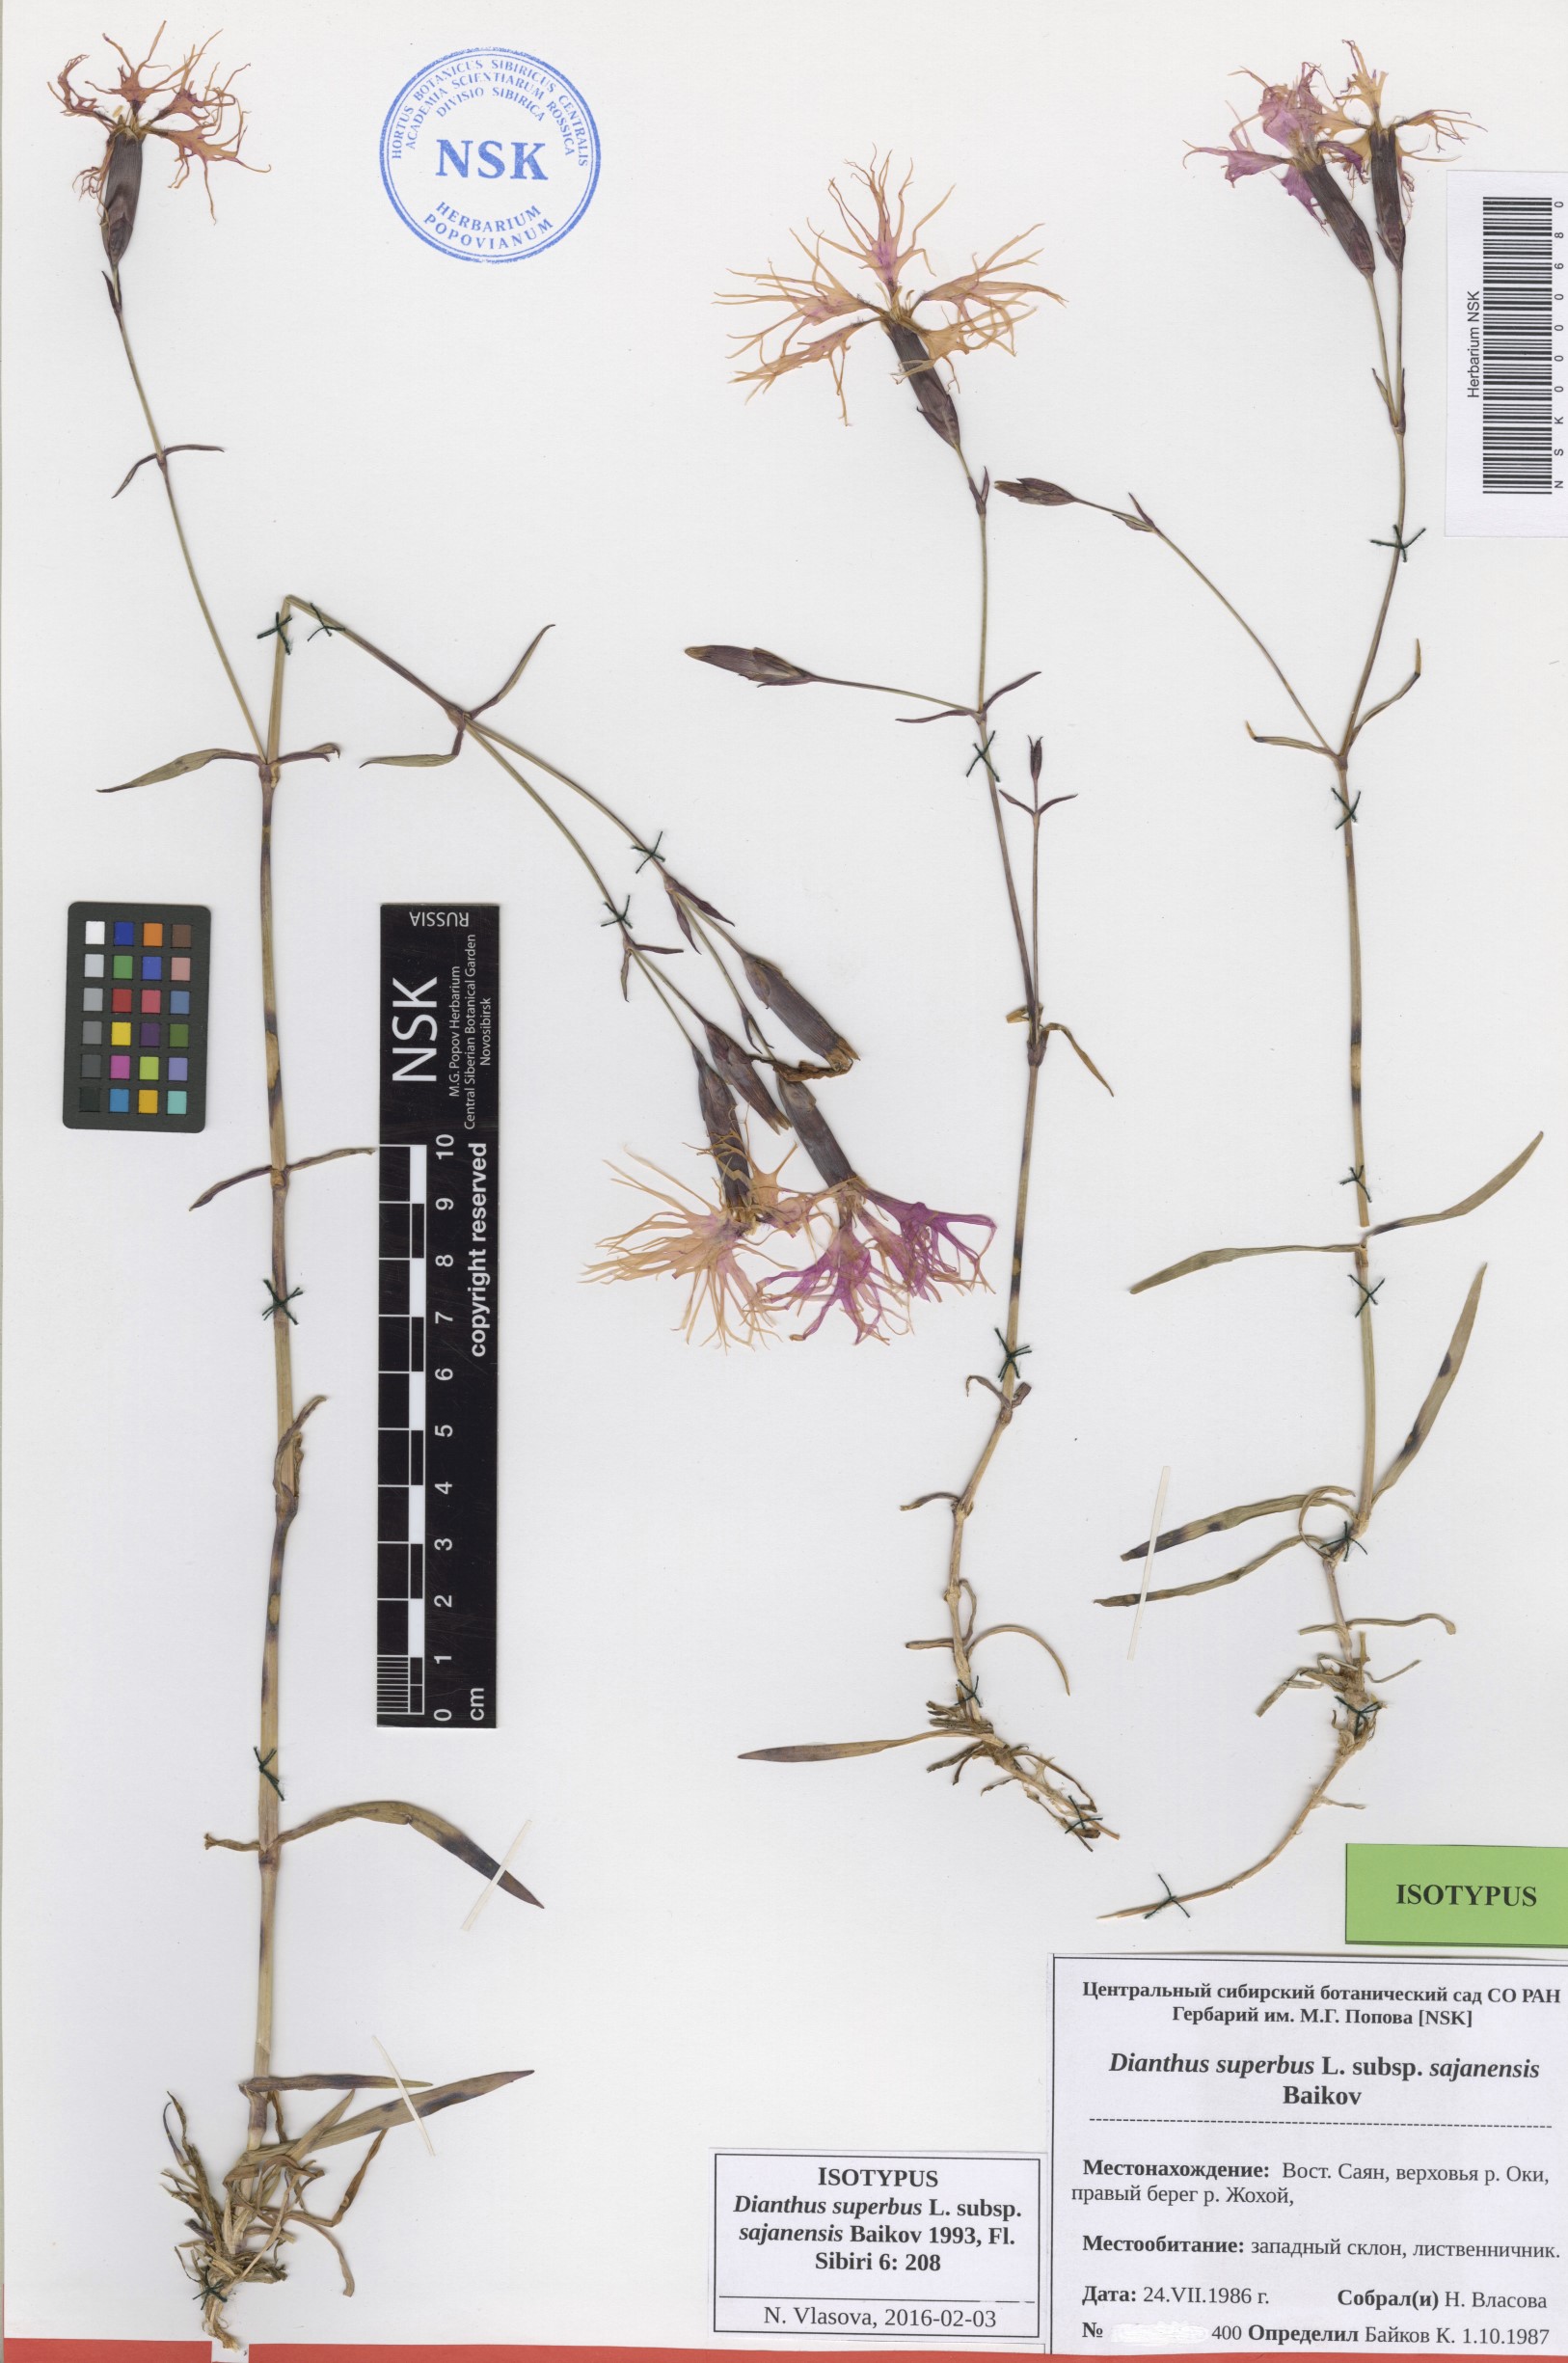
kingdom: Plantae
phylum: Tracheophyta
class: Magnoliopsida
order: Caryophyllales
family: Caryophyllaceae
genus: Dianthus
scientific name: Dianthus superbus
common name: Fringed pink
